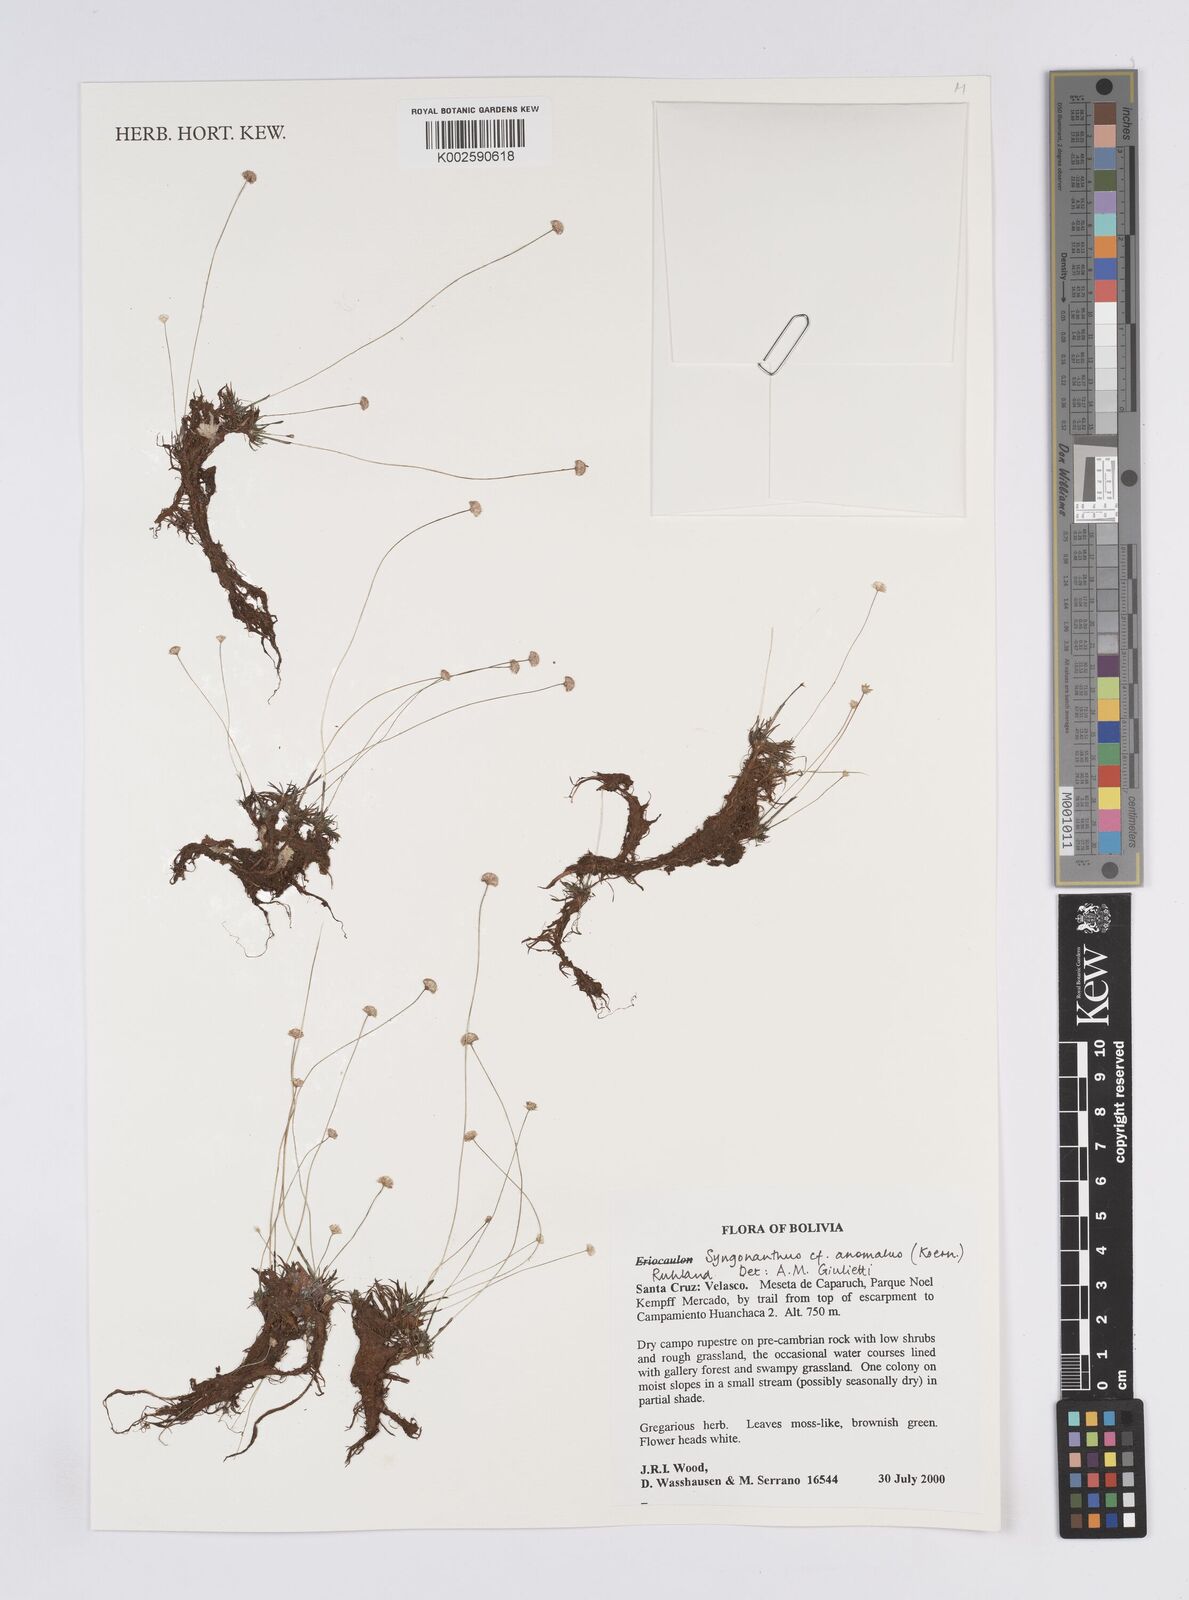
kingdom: Plantae
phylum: Tracheophyta
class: Liliopsida
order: Poales
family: Eriocaulaceae
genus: Syngonanthus
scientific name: Syngonanthus anomalus
